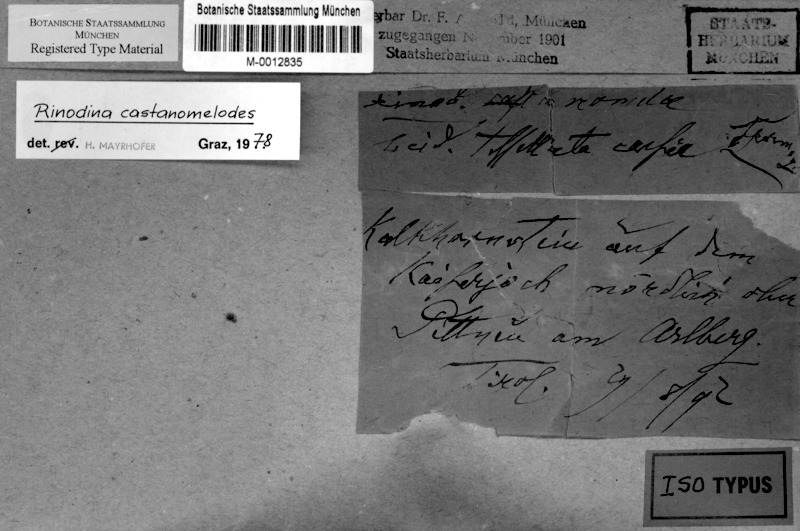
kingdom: Fungi
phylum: Ascomycota
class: Lecanoromycetes
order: Caliciales
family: Physciaceae
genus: Oxnerella
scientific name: Oxnerella castanomelodes
